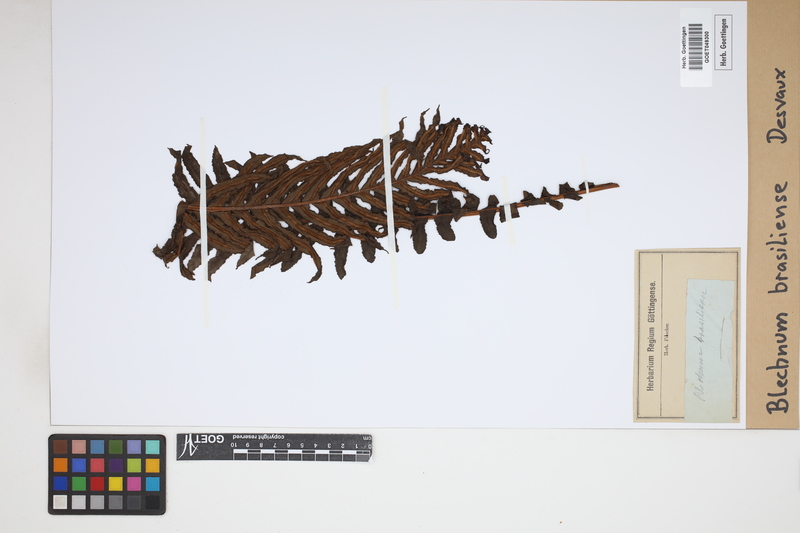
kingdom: Plantae
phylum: Tracheophyta
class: Polypodiopsida
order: Polypodiales
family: Blechnaceae
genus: Neoblechnum
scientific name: Neoblechnum brasiliense
